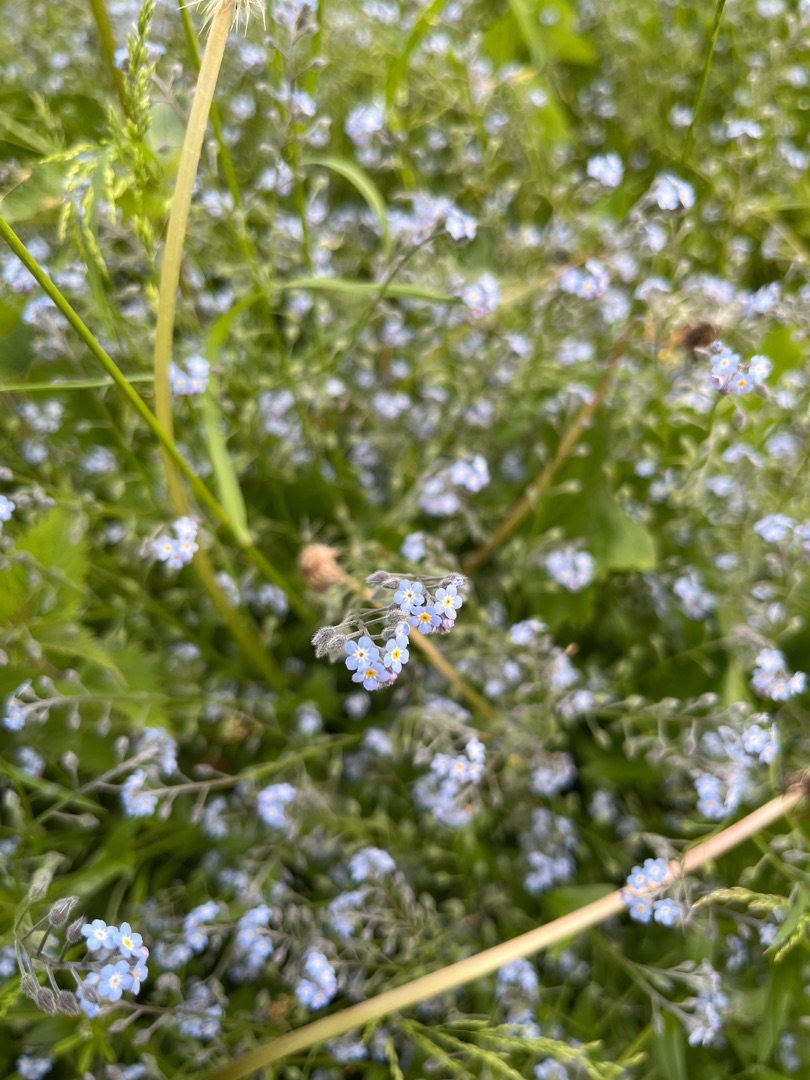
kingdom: Plantae
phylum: Tracheophyta
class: Magnoliopsida
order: Boraginales
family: Boraginaceae
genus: Myosotis
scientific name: Myosotis sylvatica
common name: Skov-forglemmigej
